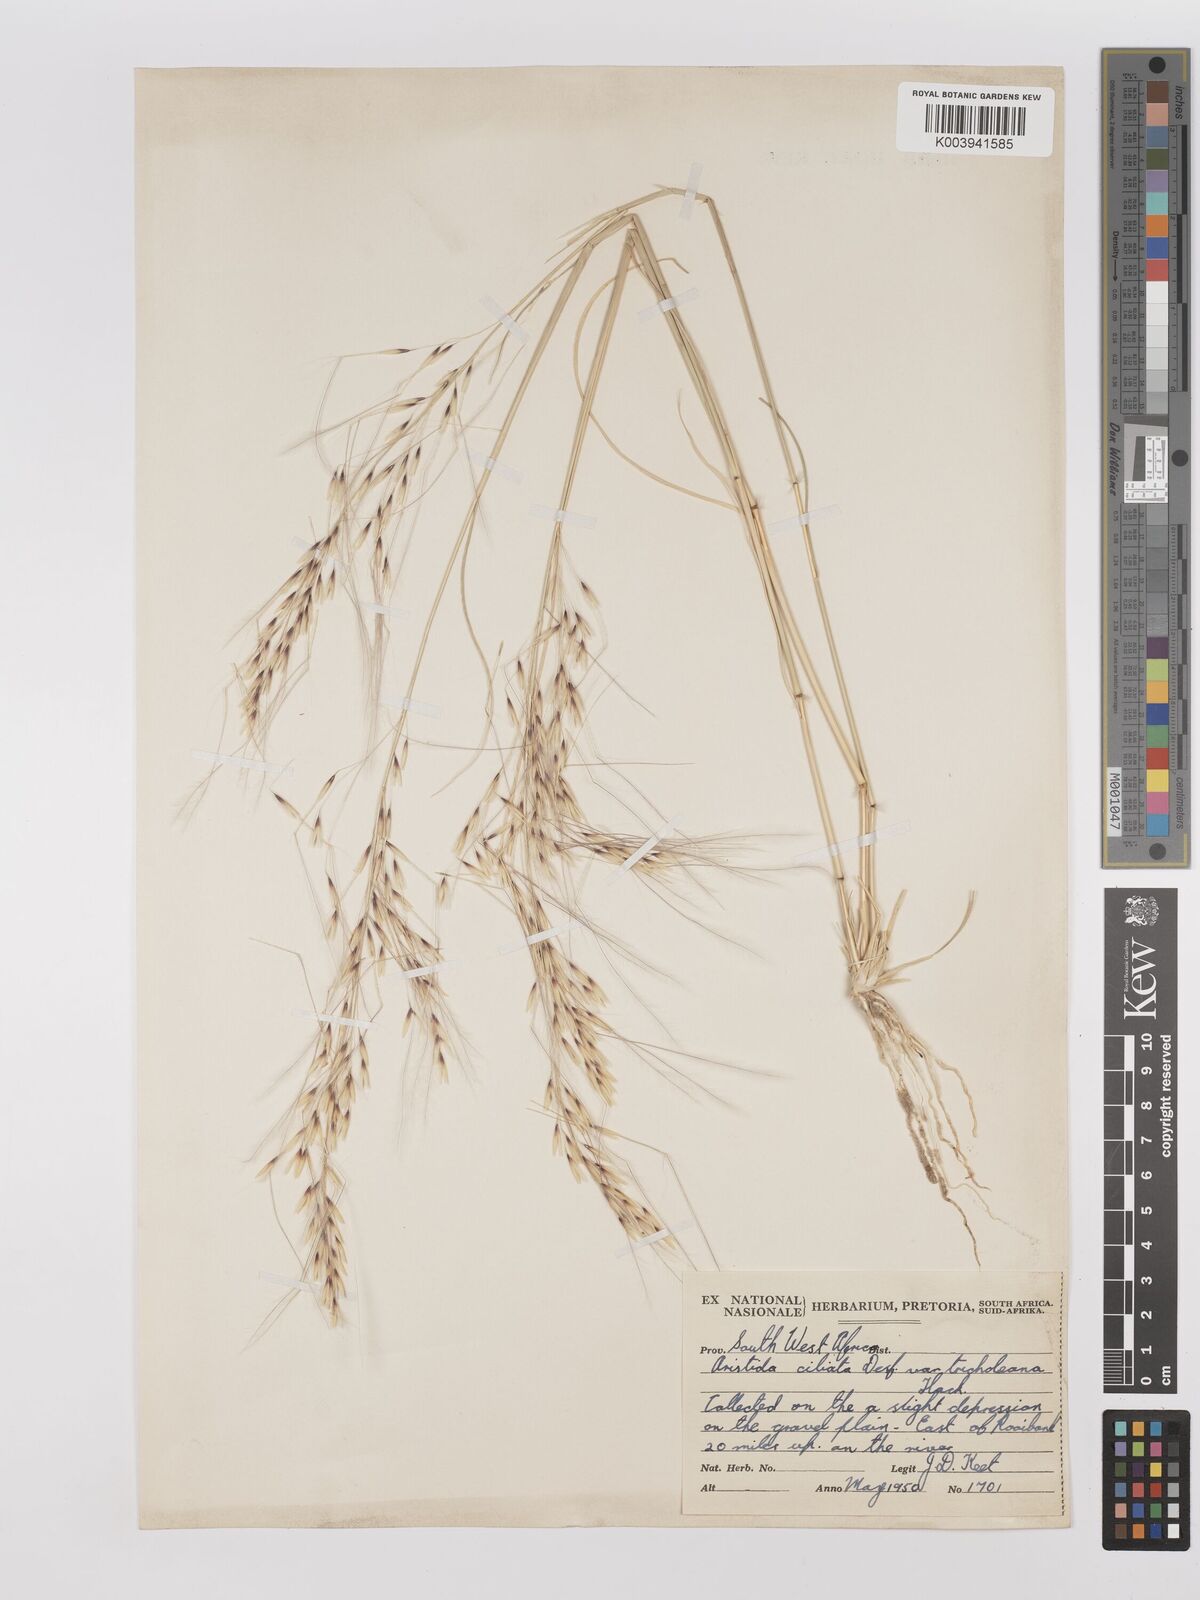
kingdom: Plantae
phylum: Tracheophyta
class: Liliopsida
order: Poales
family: Poaceae
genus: Stipagrostis
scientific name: Stipagrostis ciliata
